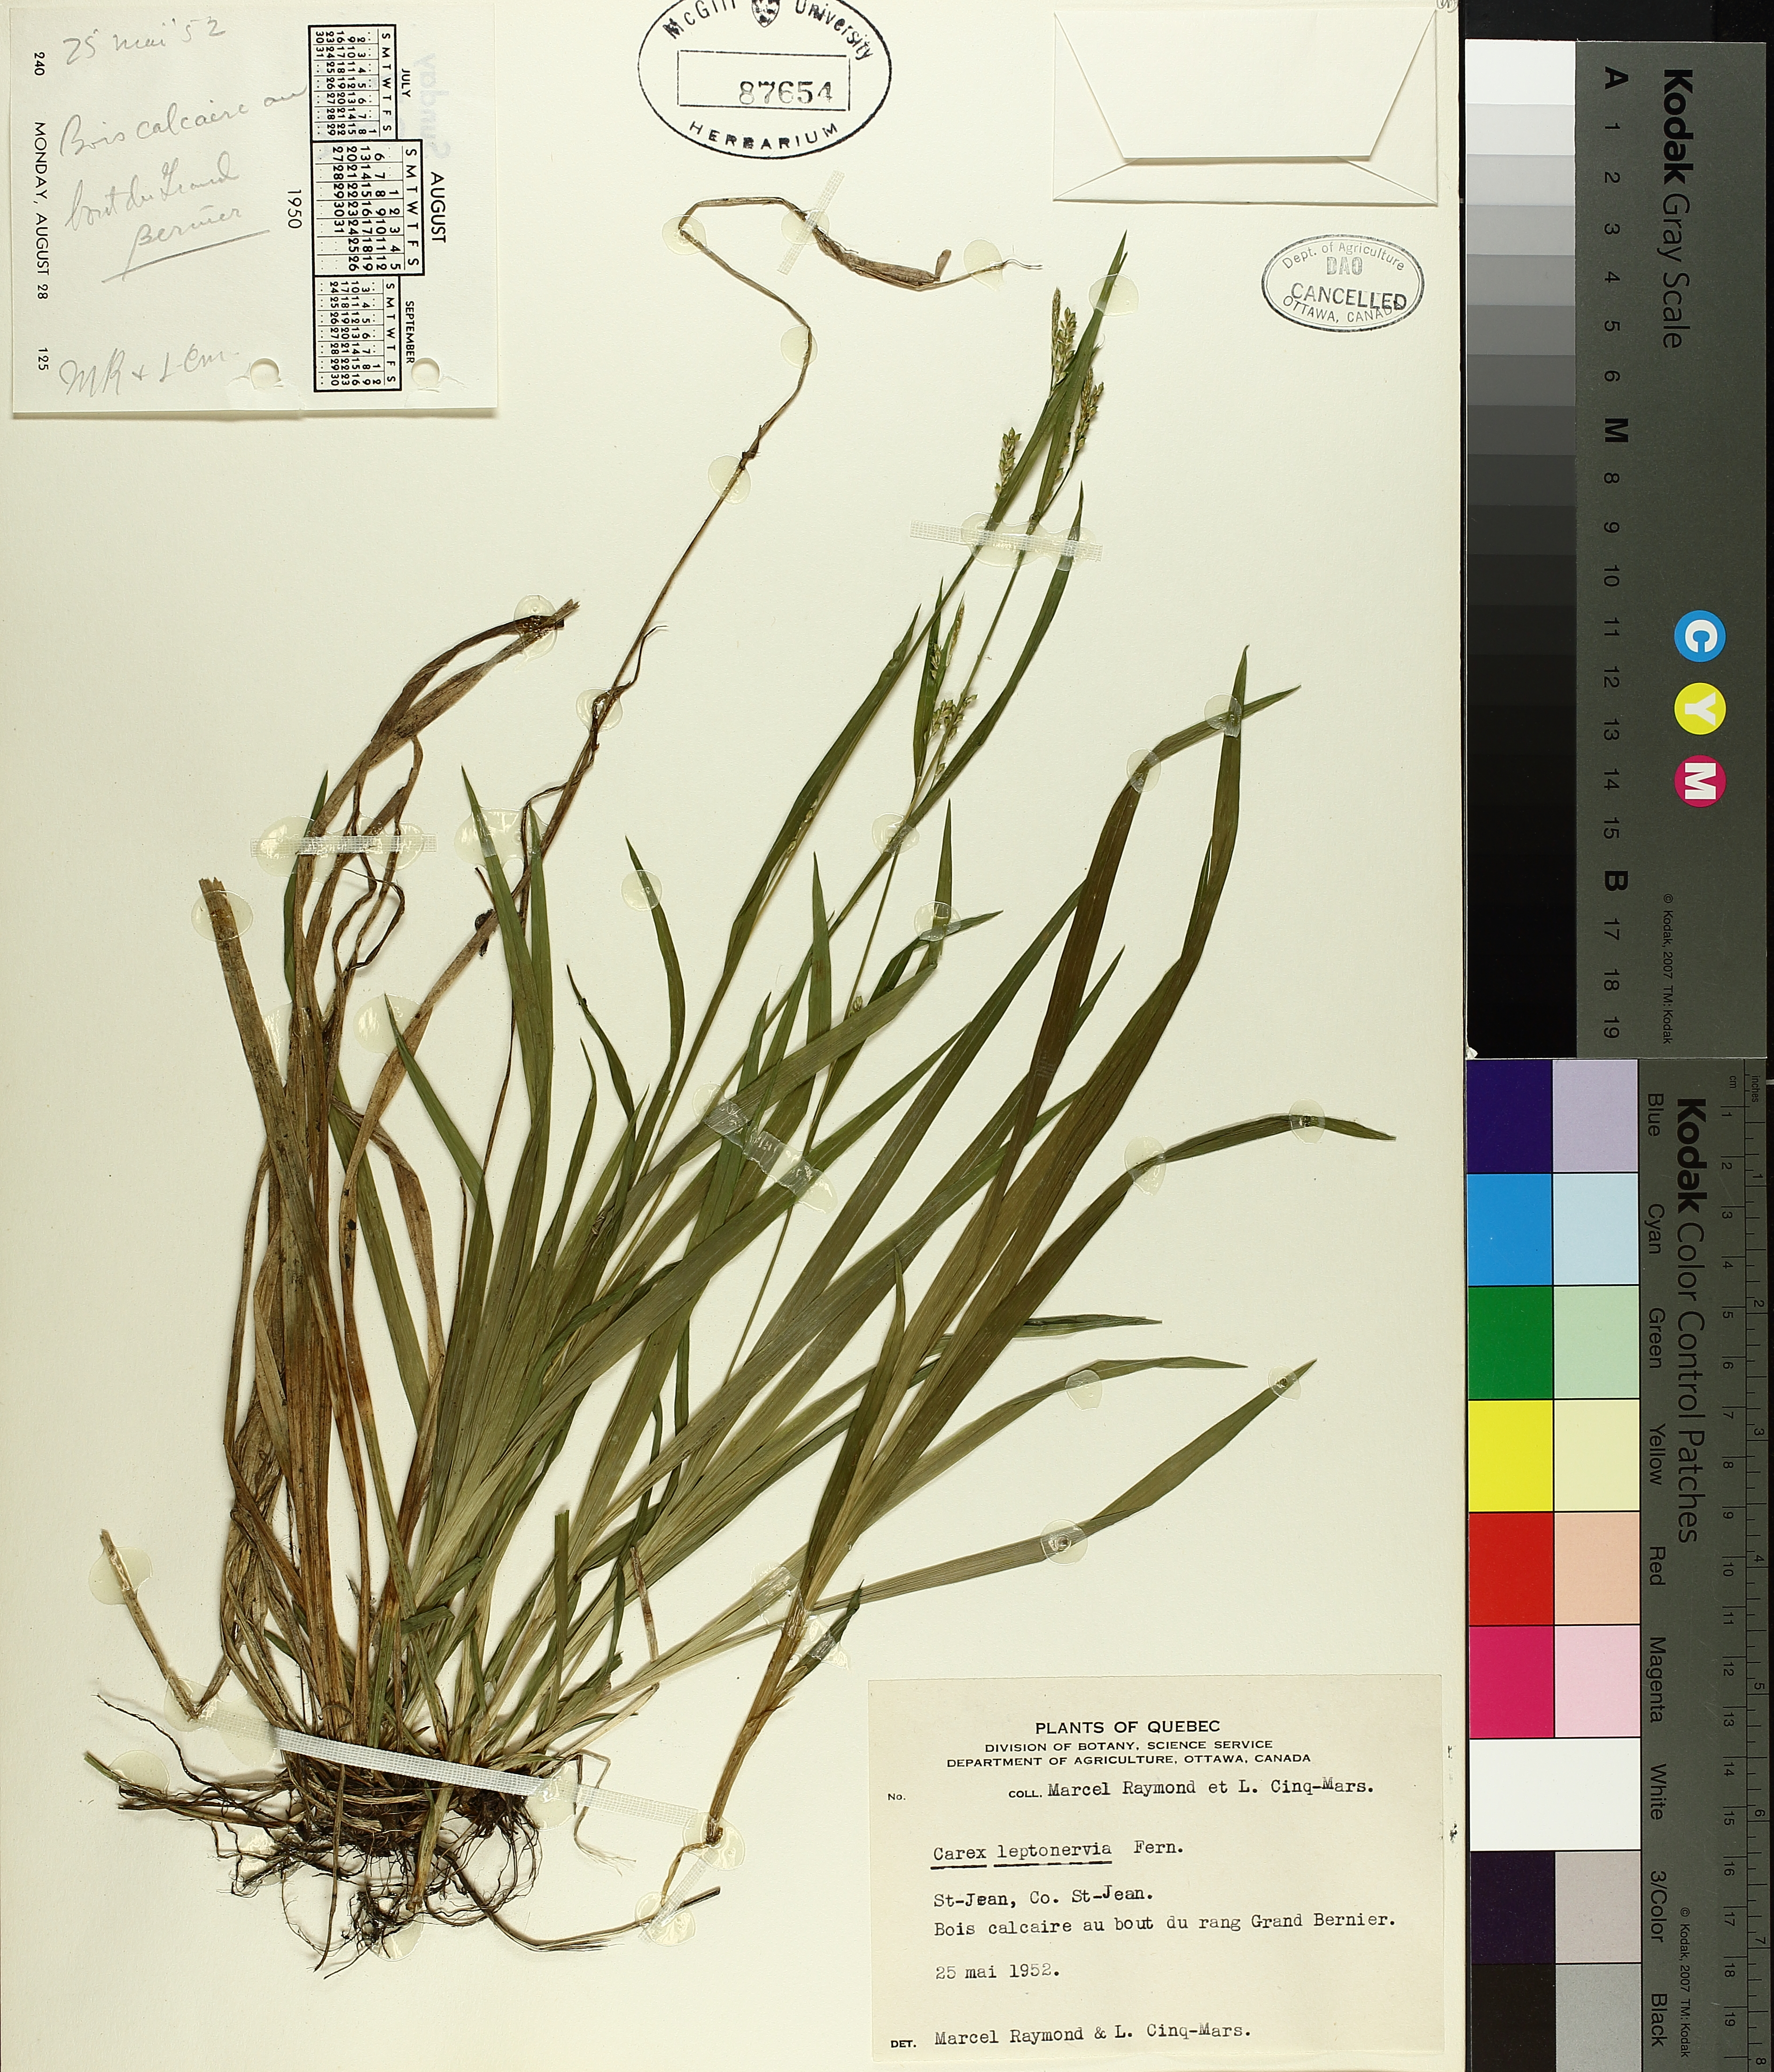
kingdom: Plantae
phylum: Tracheophyta
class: Liliopsida
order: Poales
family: Cyperaceae
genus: Carex
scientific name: Carex leptonervia
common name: Few-nerved wood sedge
